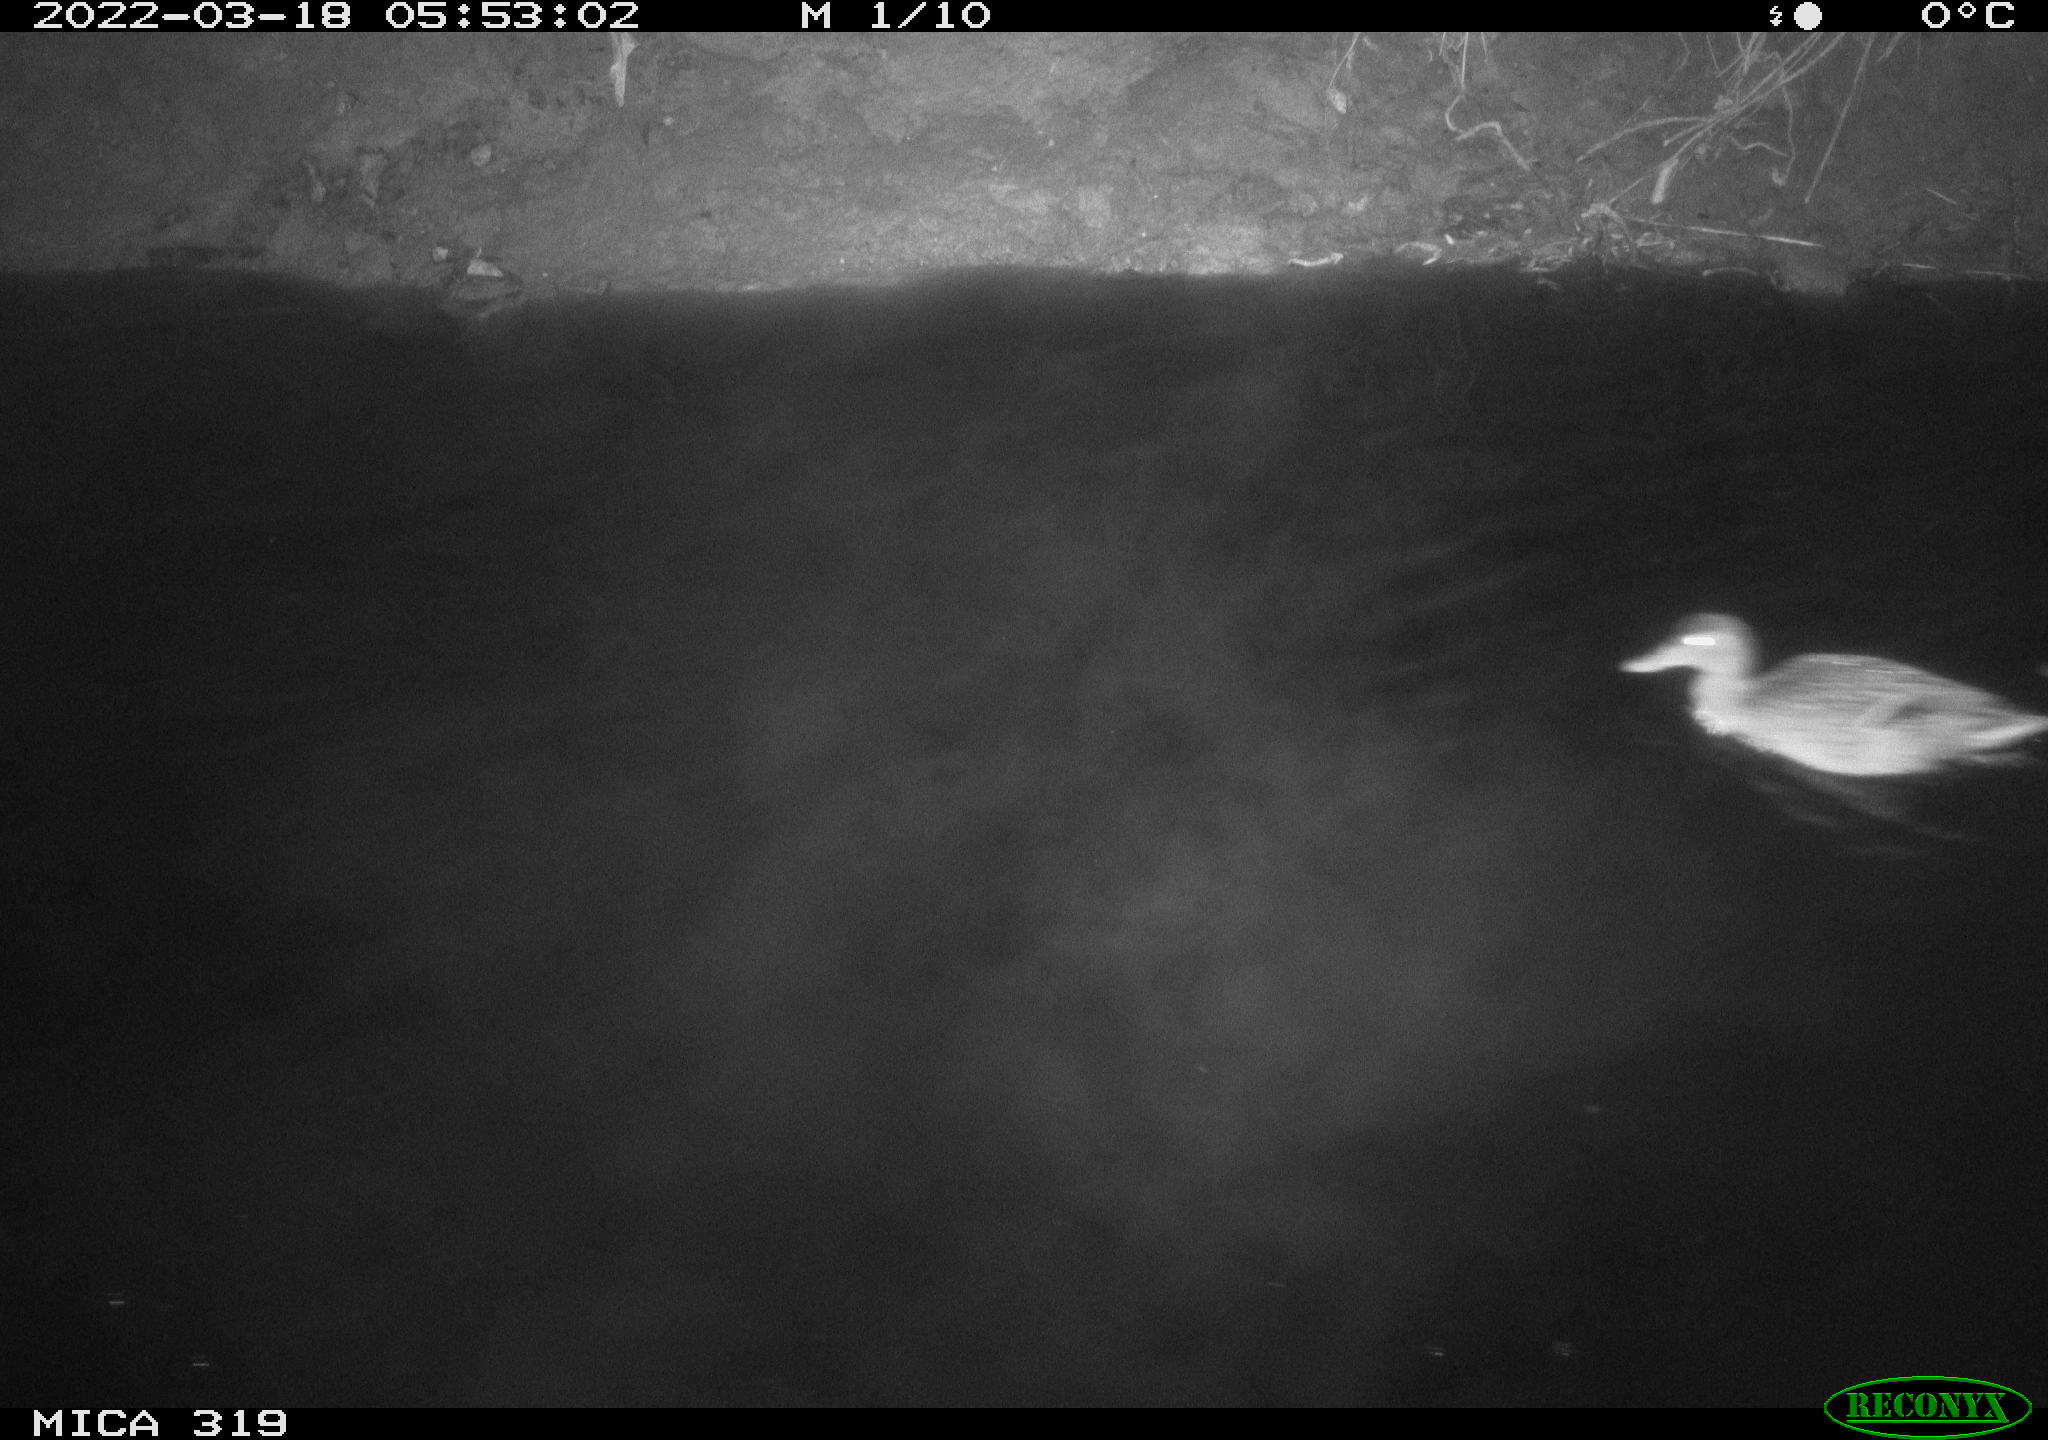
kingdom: Animalia
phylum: Chordata
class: Aves
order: Anseriformes
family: Anatidae
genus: Anas
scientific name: Anas platyrhynchos
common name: Mallard
